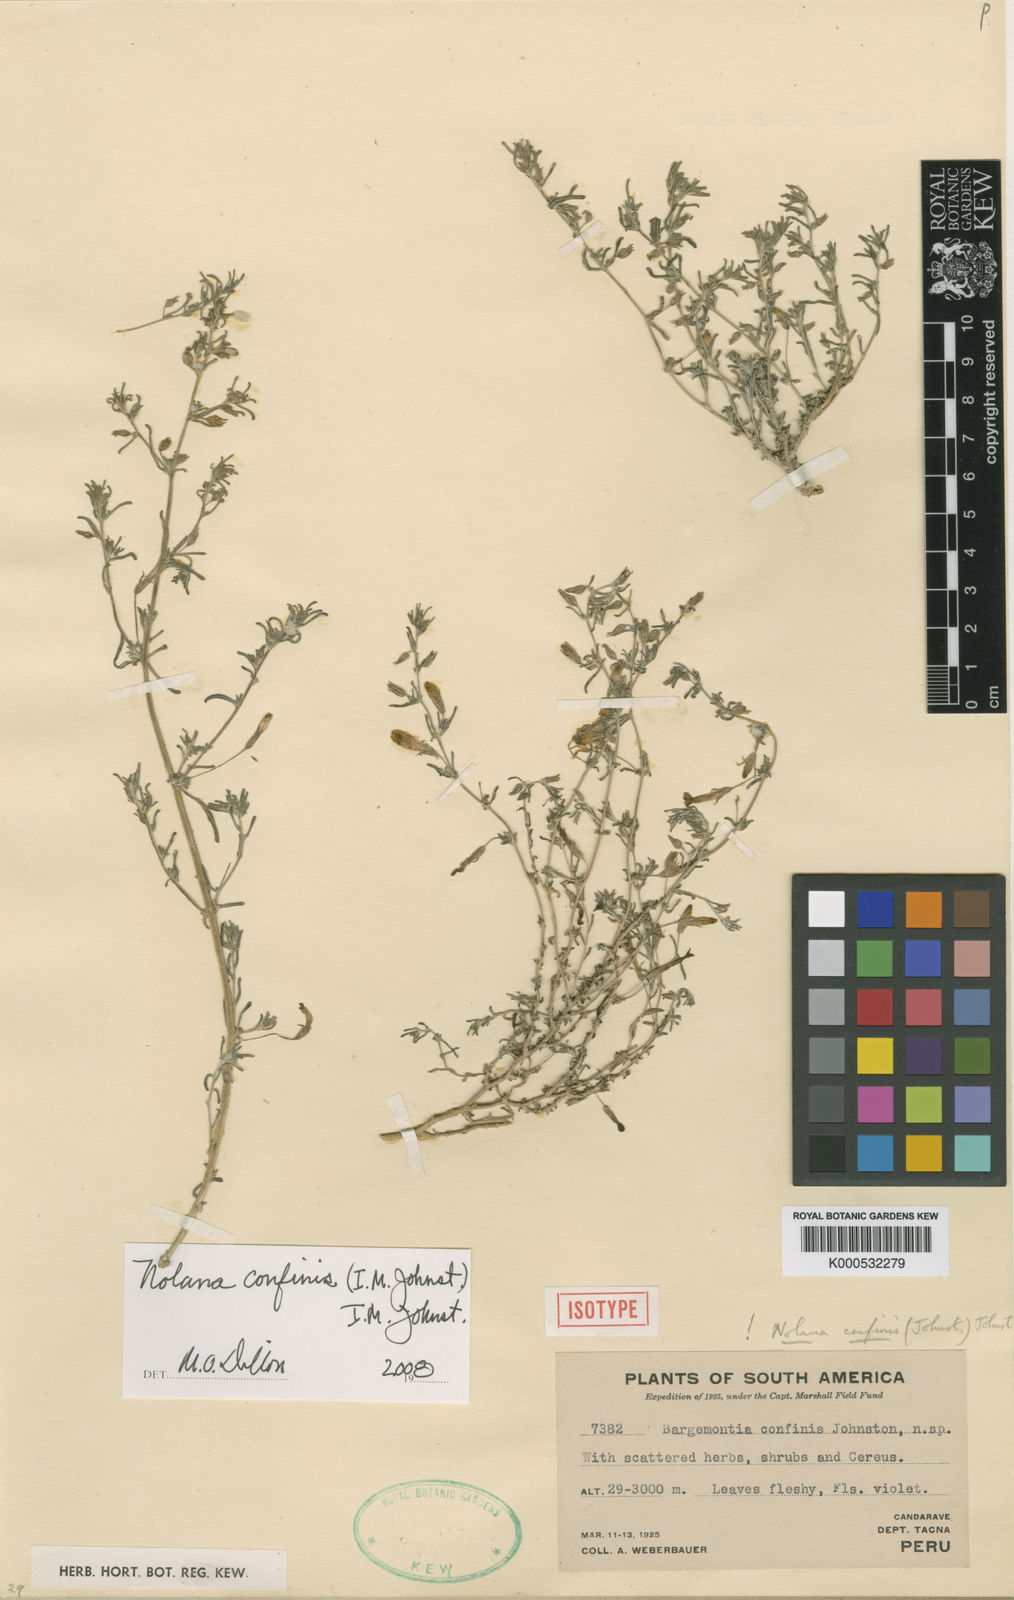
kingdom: Plantae
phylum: Tracheophyta
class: Magnoliopsida
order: Solanales
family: Solanaceae
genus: Nolana
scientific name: Nolana lycioides
